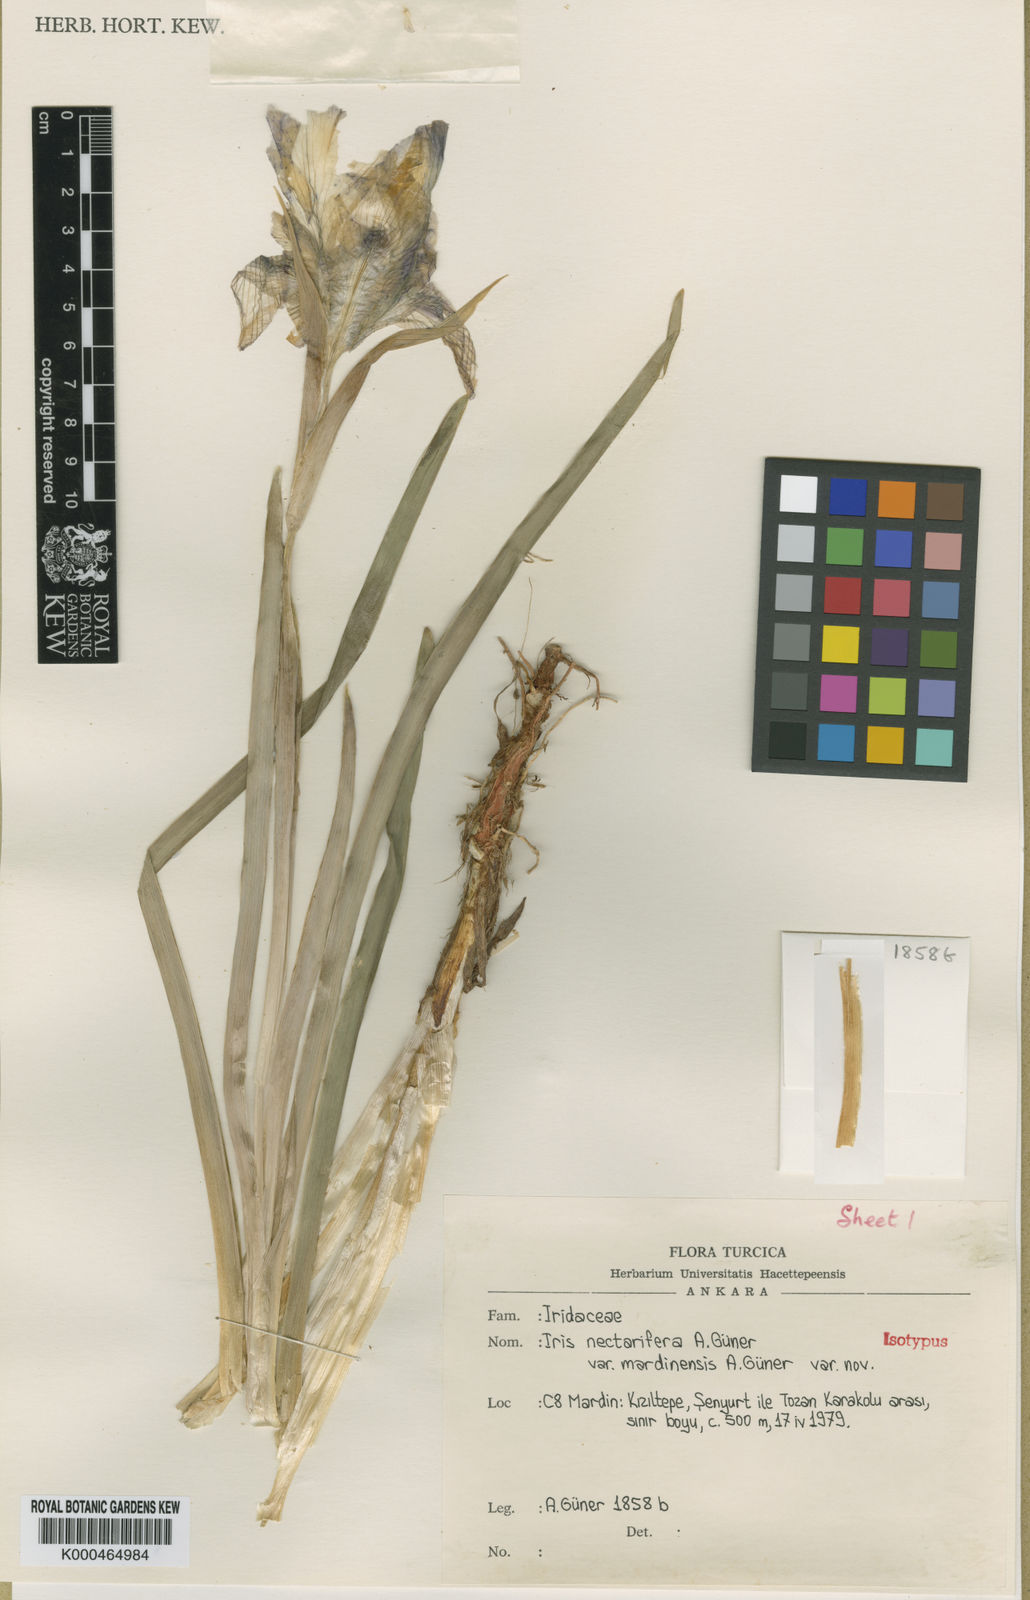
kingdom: Plantae
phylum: Tracheophyta
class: Liliopsida
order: Asparagales
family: Iridaceae
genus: Iris
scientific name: Iris maculata
